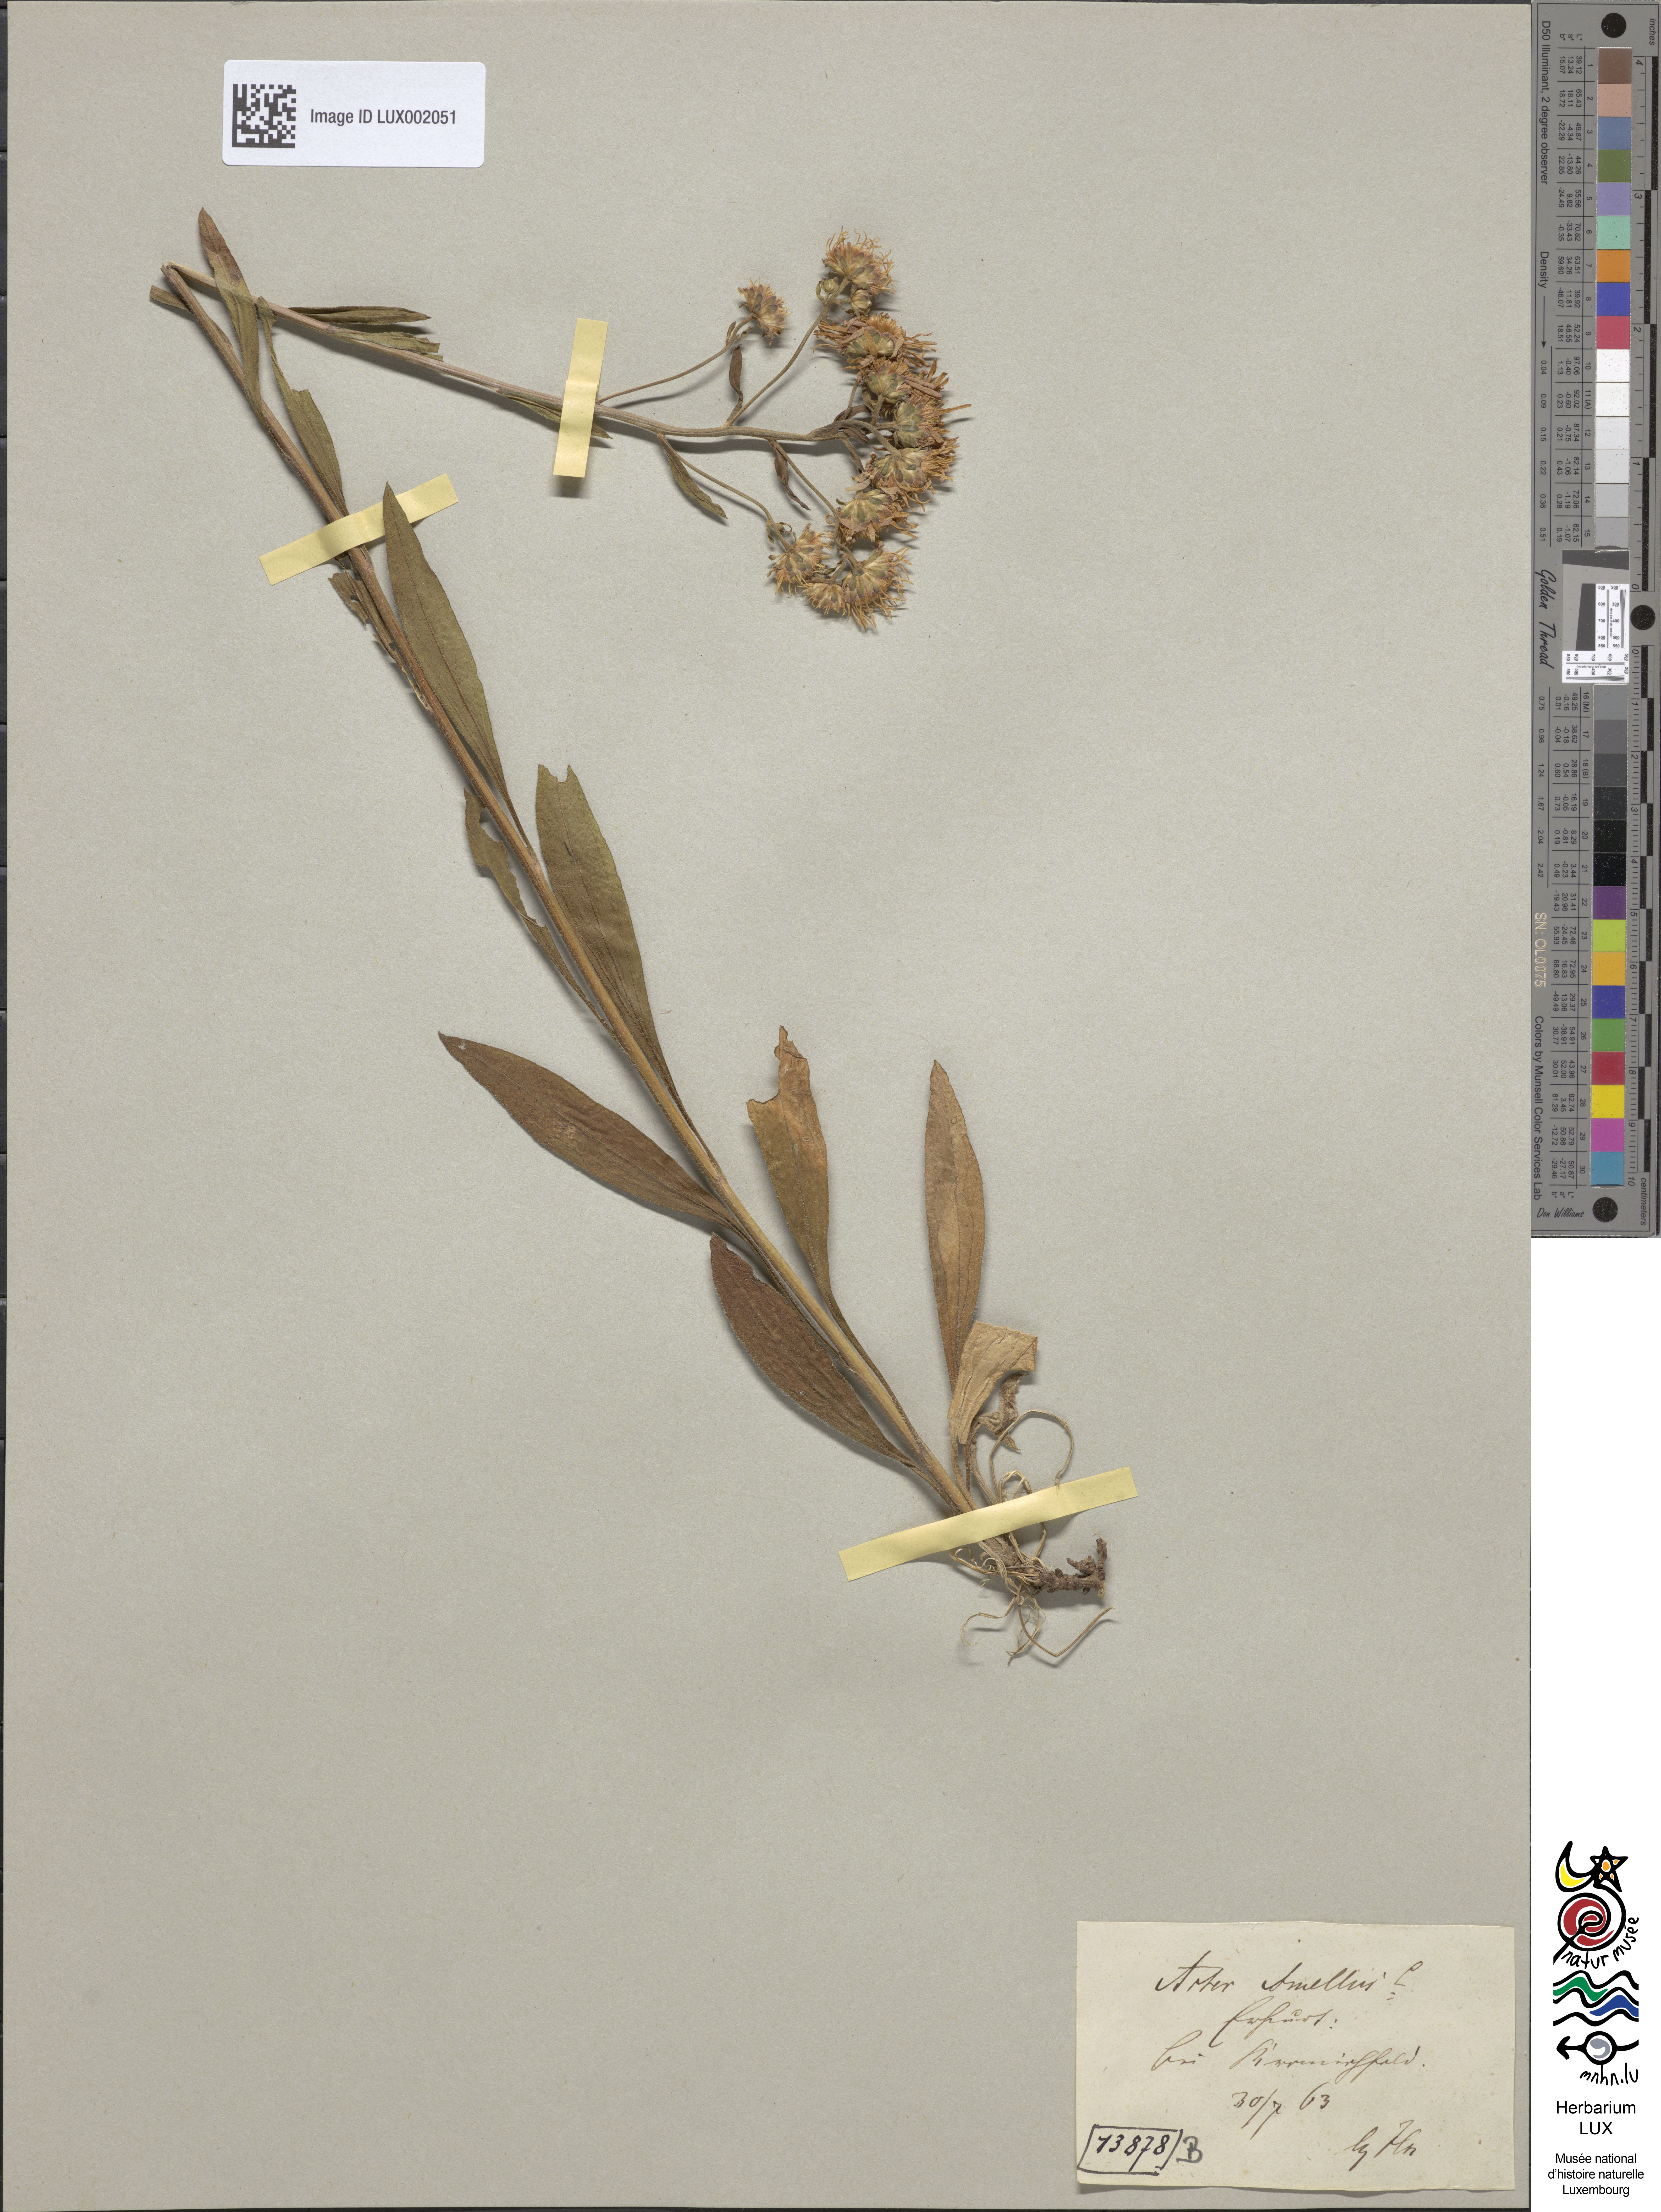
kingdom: Plantae
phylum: Tracheophyta
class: Magnoliopsida
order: Asterales
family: Asteraceae
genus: Aster
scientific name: Aster amellus
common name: European michaelmas daisy
